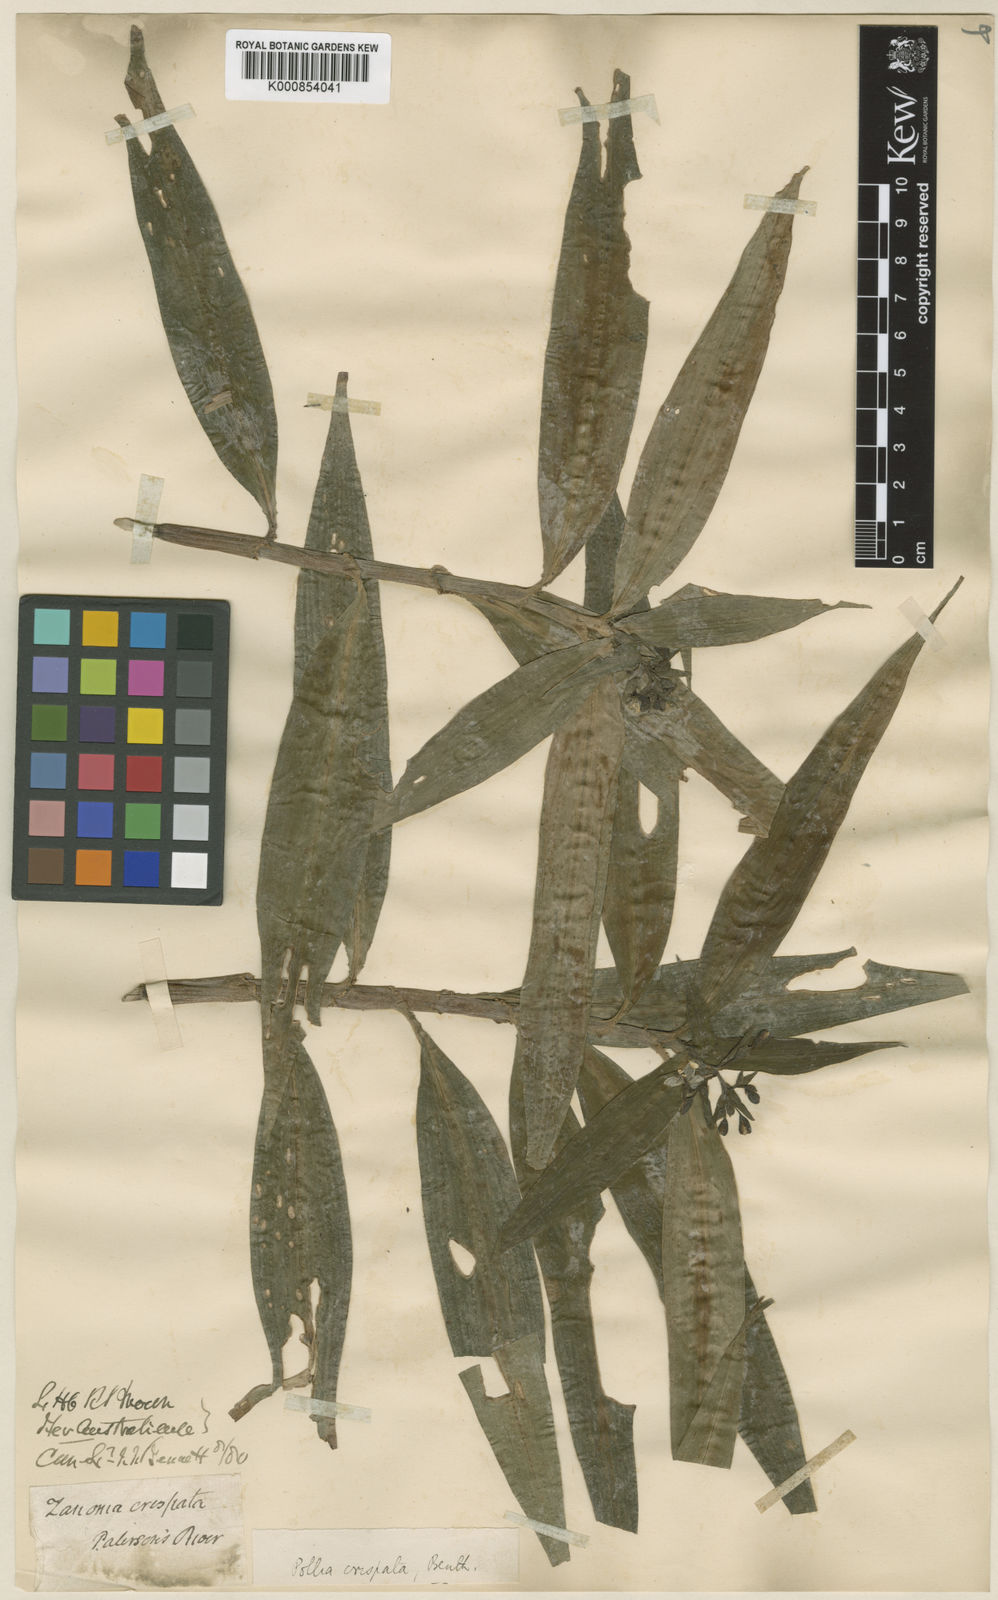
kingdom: Plantae
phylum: Tracheophyta
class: Liliopsida
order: Commelinales
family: Commelinaceae
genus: Pollia
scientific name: Pollia crispata
